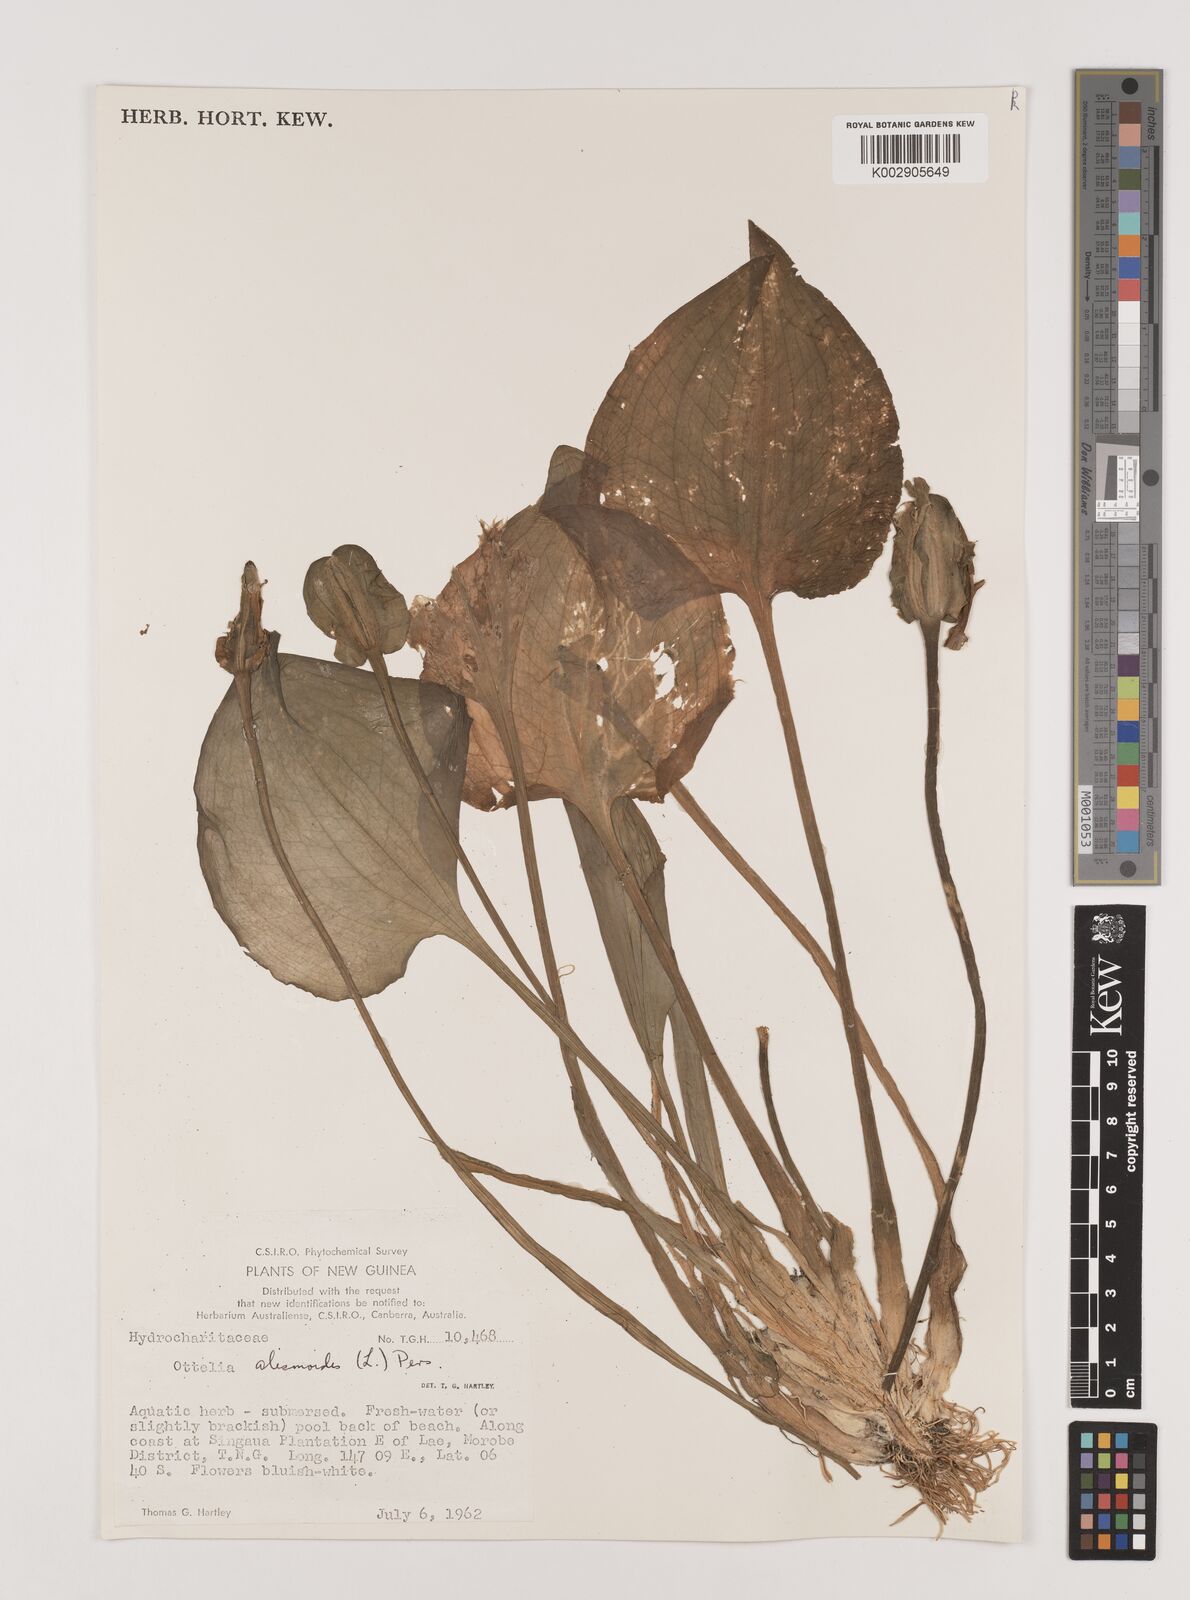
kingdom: Plantae
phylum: Tracheophyta
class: Liliopsida
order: Alismatales
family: Hydrocharitaceae
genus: Ottelia
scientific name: Ottelia alismoides
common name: Duck-lettuce
